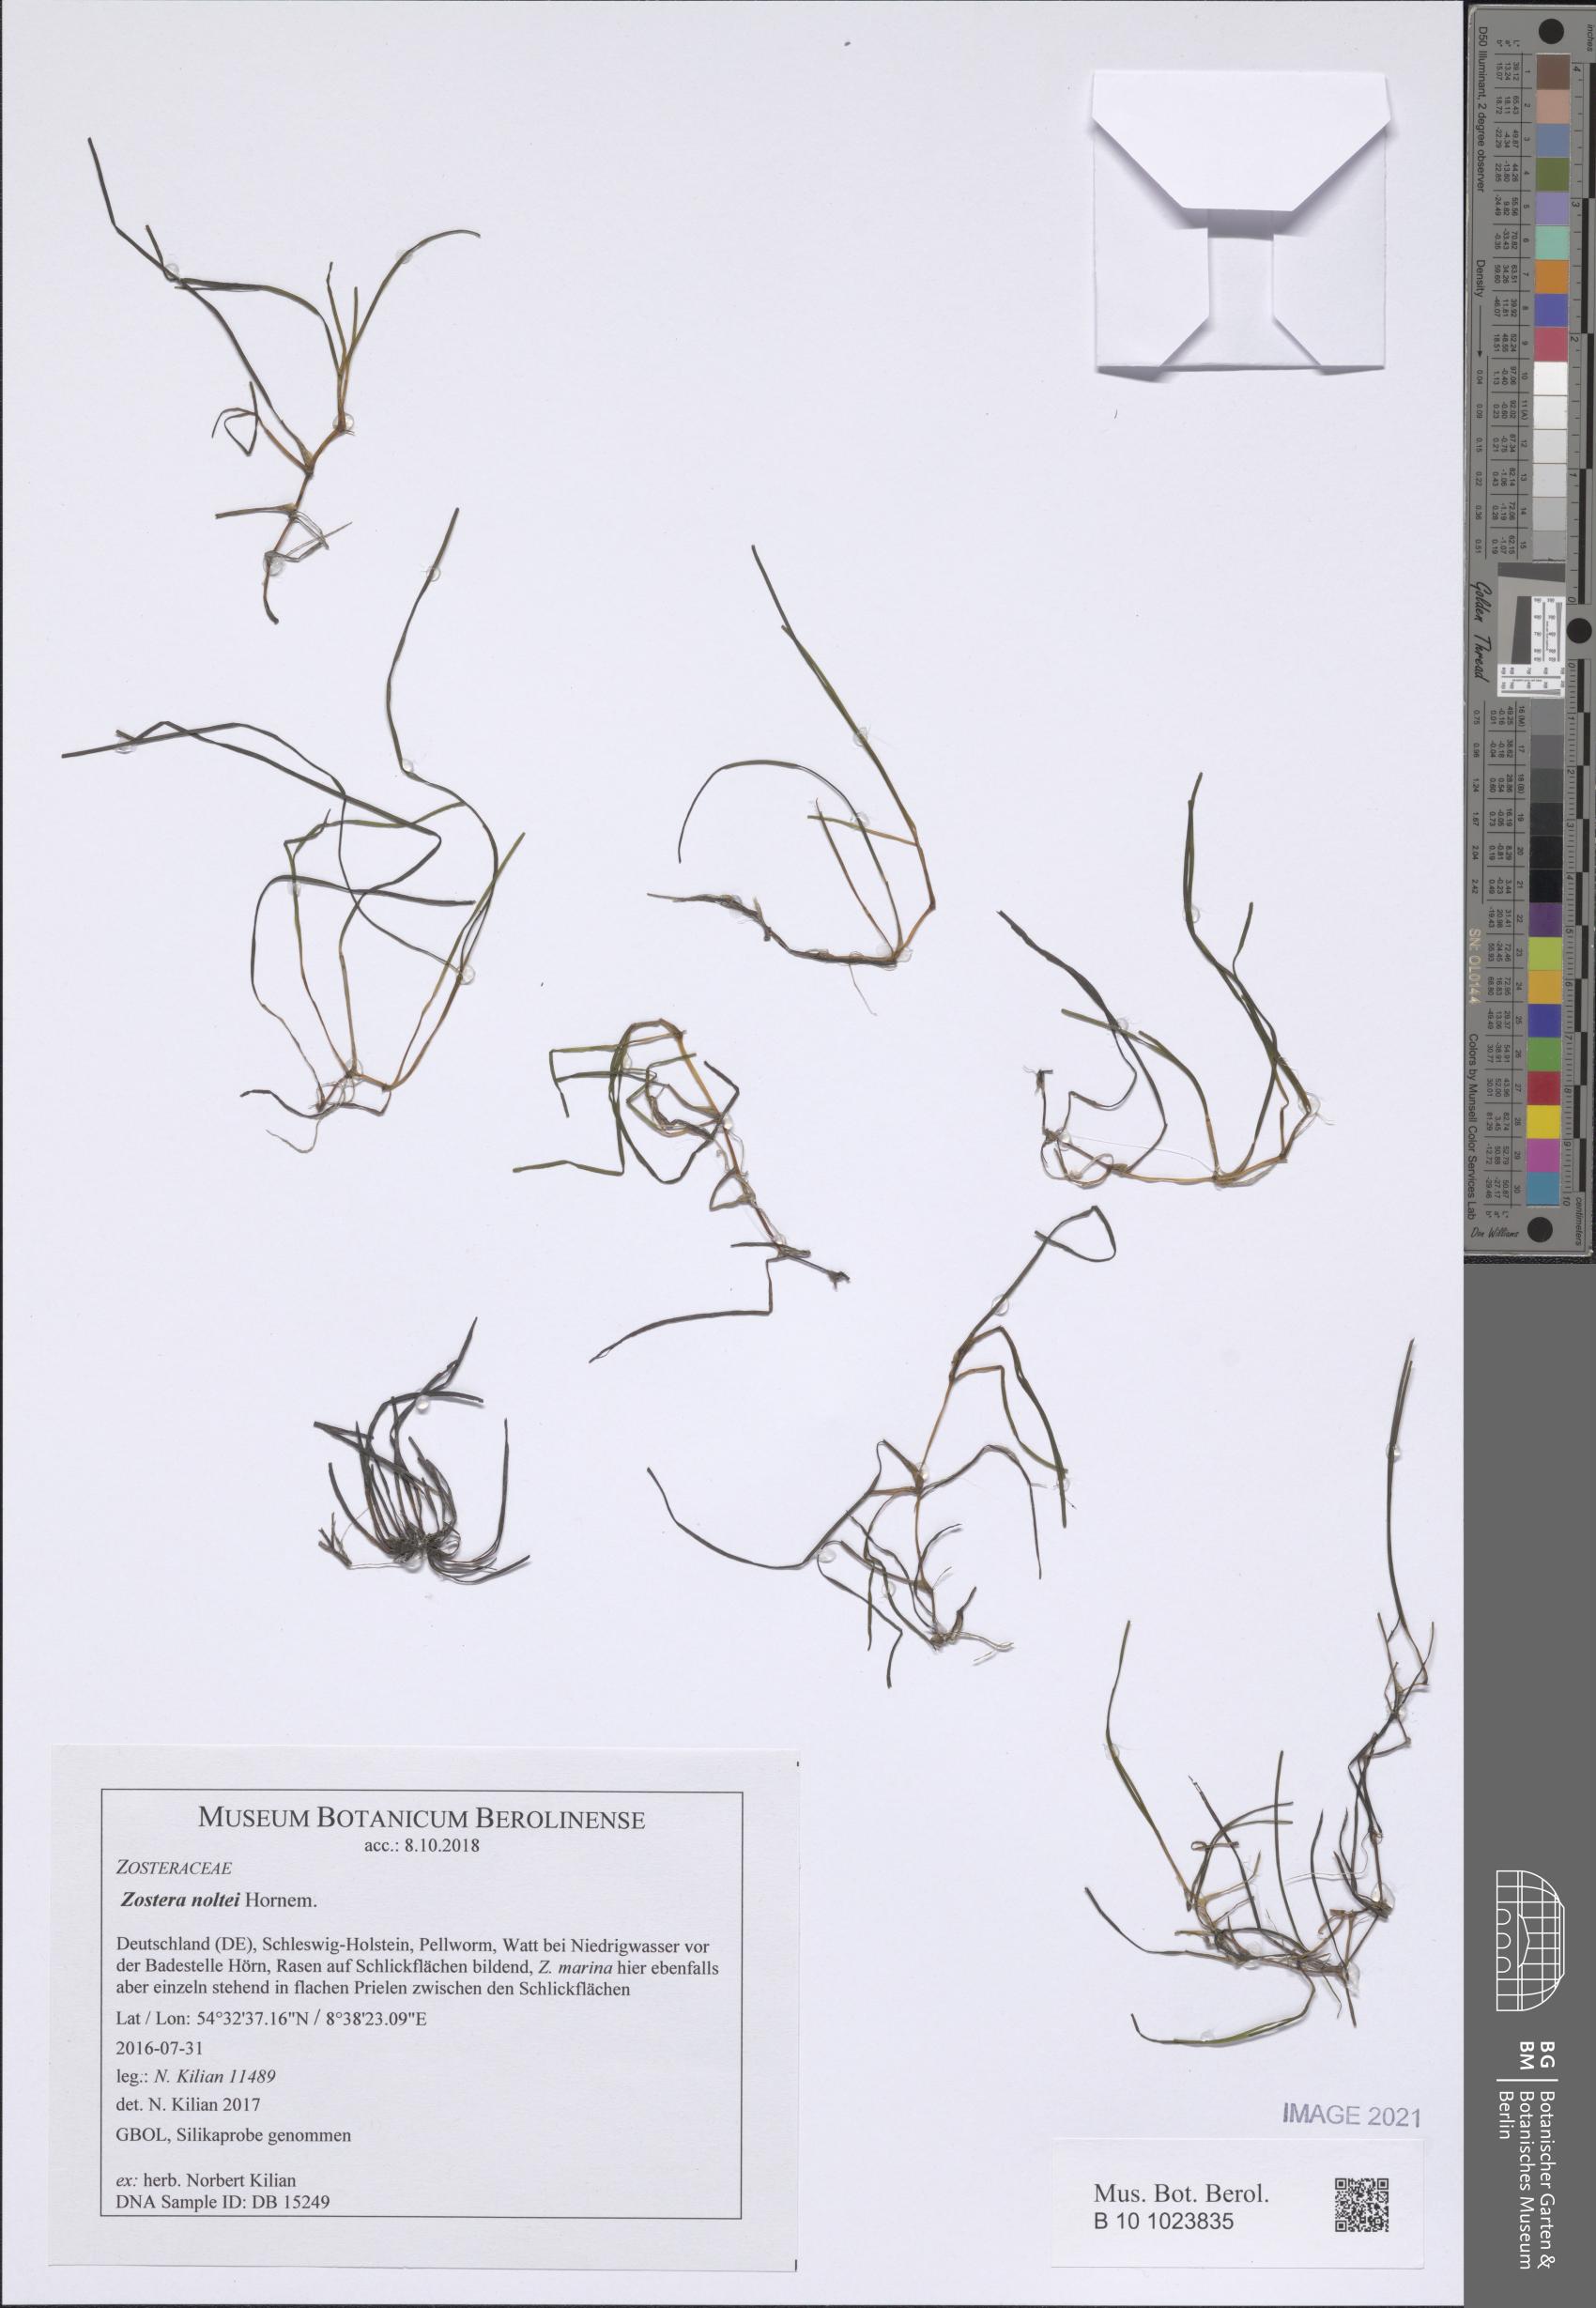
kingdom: Plantae
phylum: Tracheophyta
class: Liliopsida
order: Alismatales
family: Zosteraceae
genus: Zostera
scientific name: Zostera noltii
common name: Dwarf eelgrass
